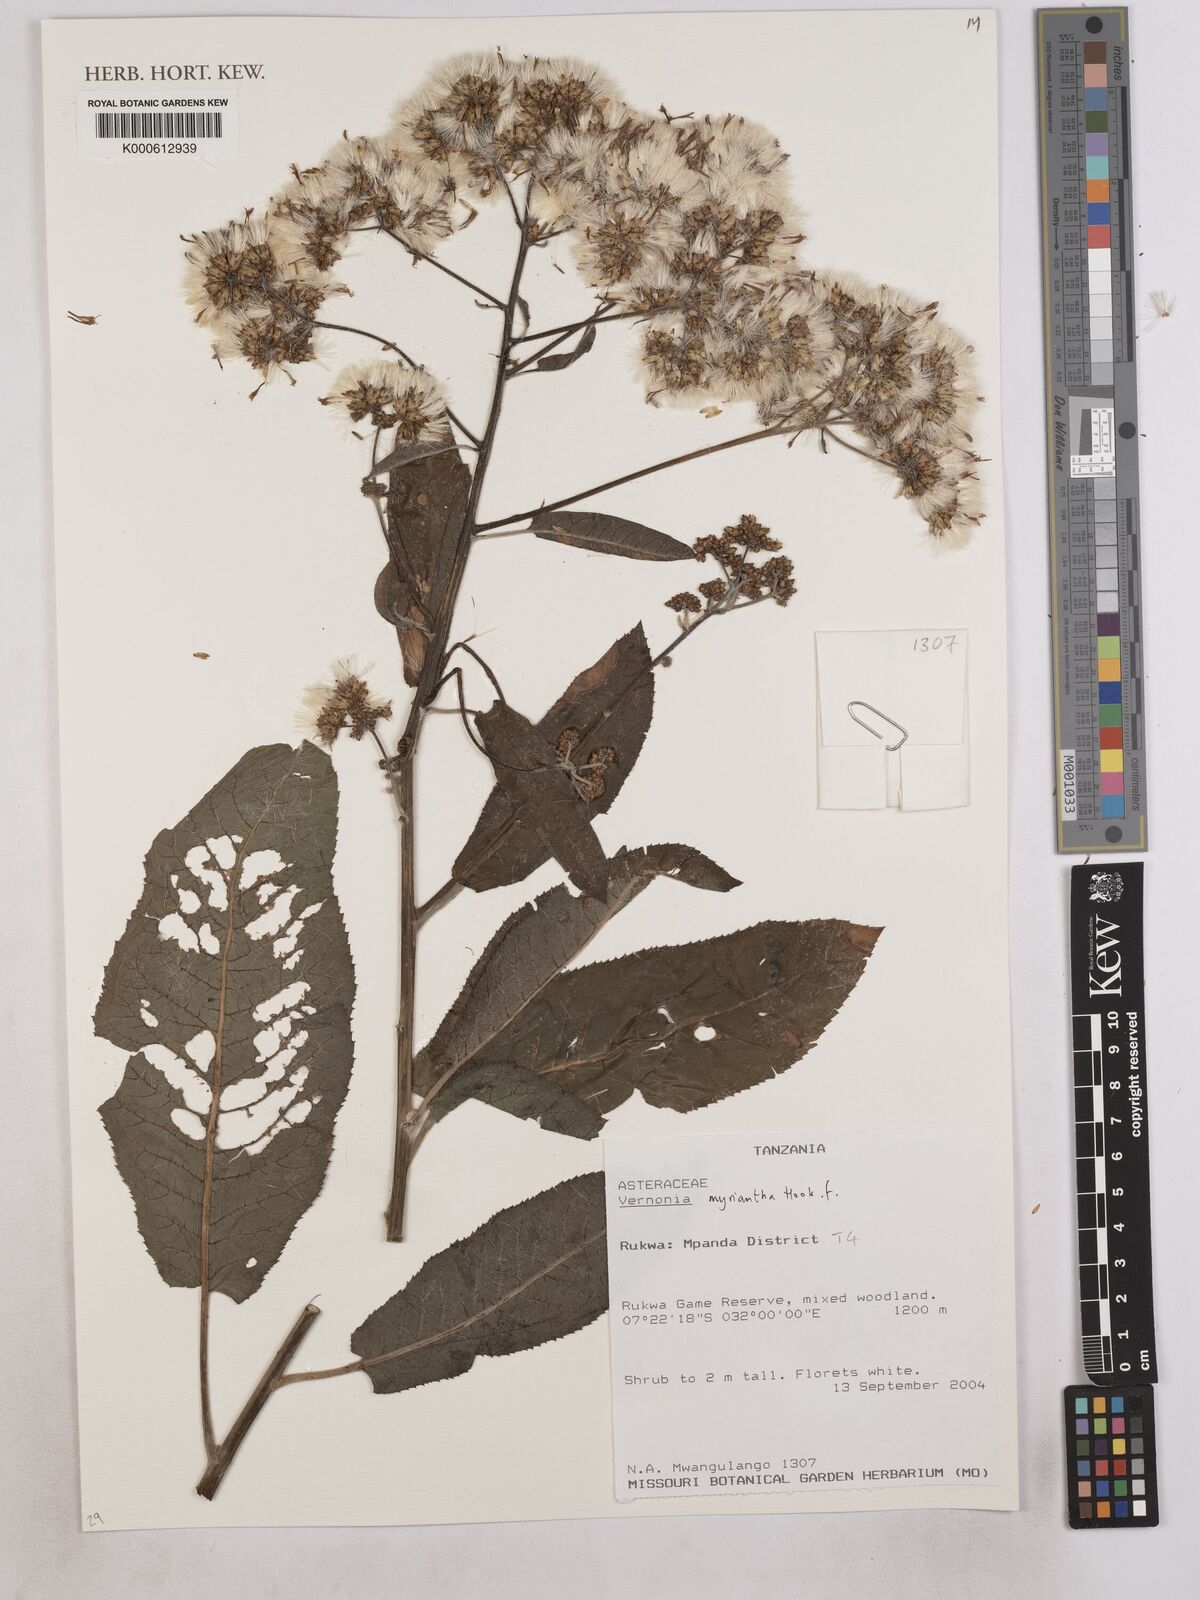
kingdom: Plantae
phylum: Tracheophyta
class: Magnoliopsida
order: Asterales
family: Asteraceae
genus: Gymnanthemum
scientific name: Gymnanthemum myrianthum
